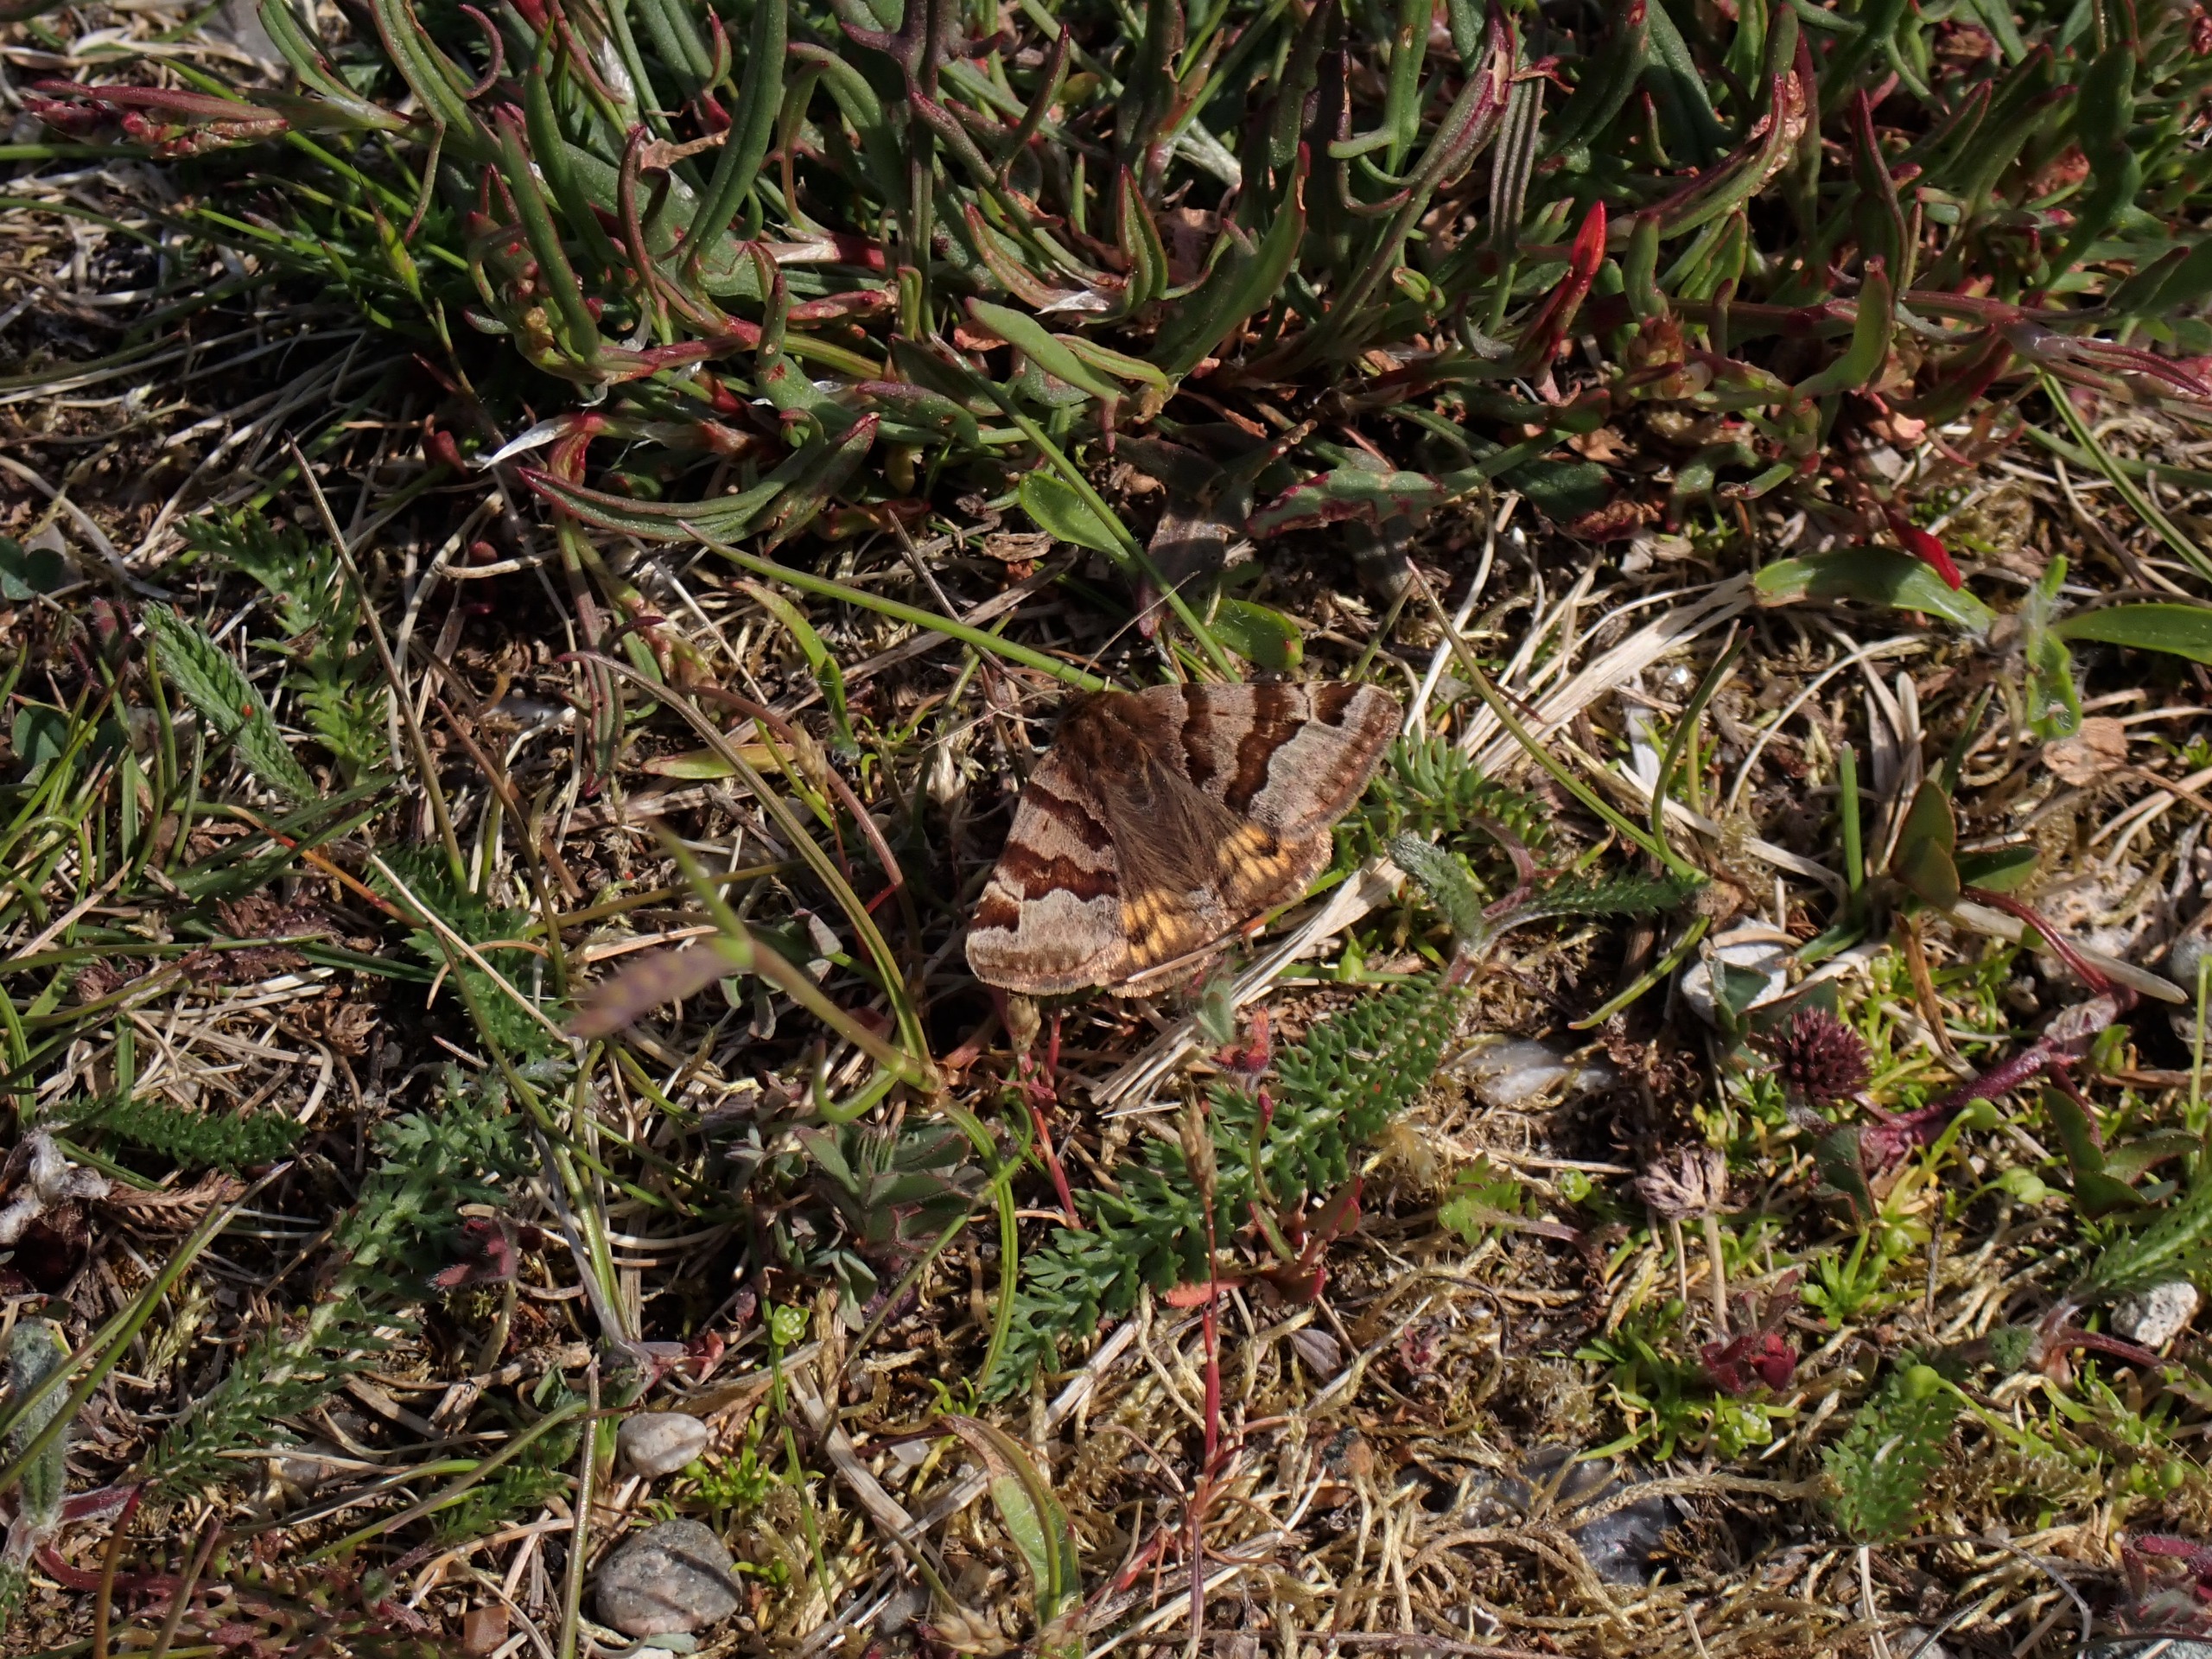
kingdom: Animalia
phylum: Arthropoda
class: Insecta
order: Lepidoptera
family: Erebidae
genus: Euclidia
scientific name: Euclidia glyphica
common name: Brun kløverugle
